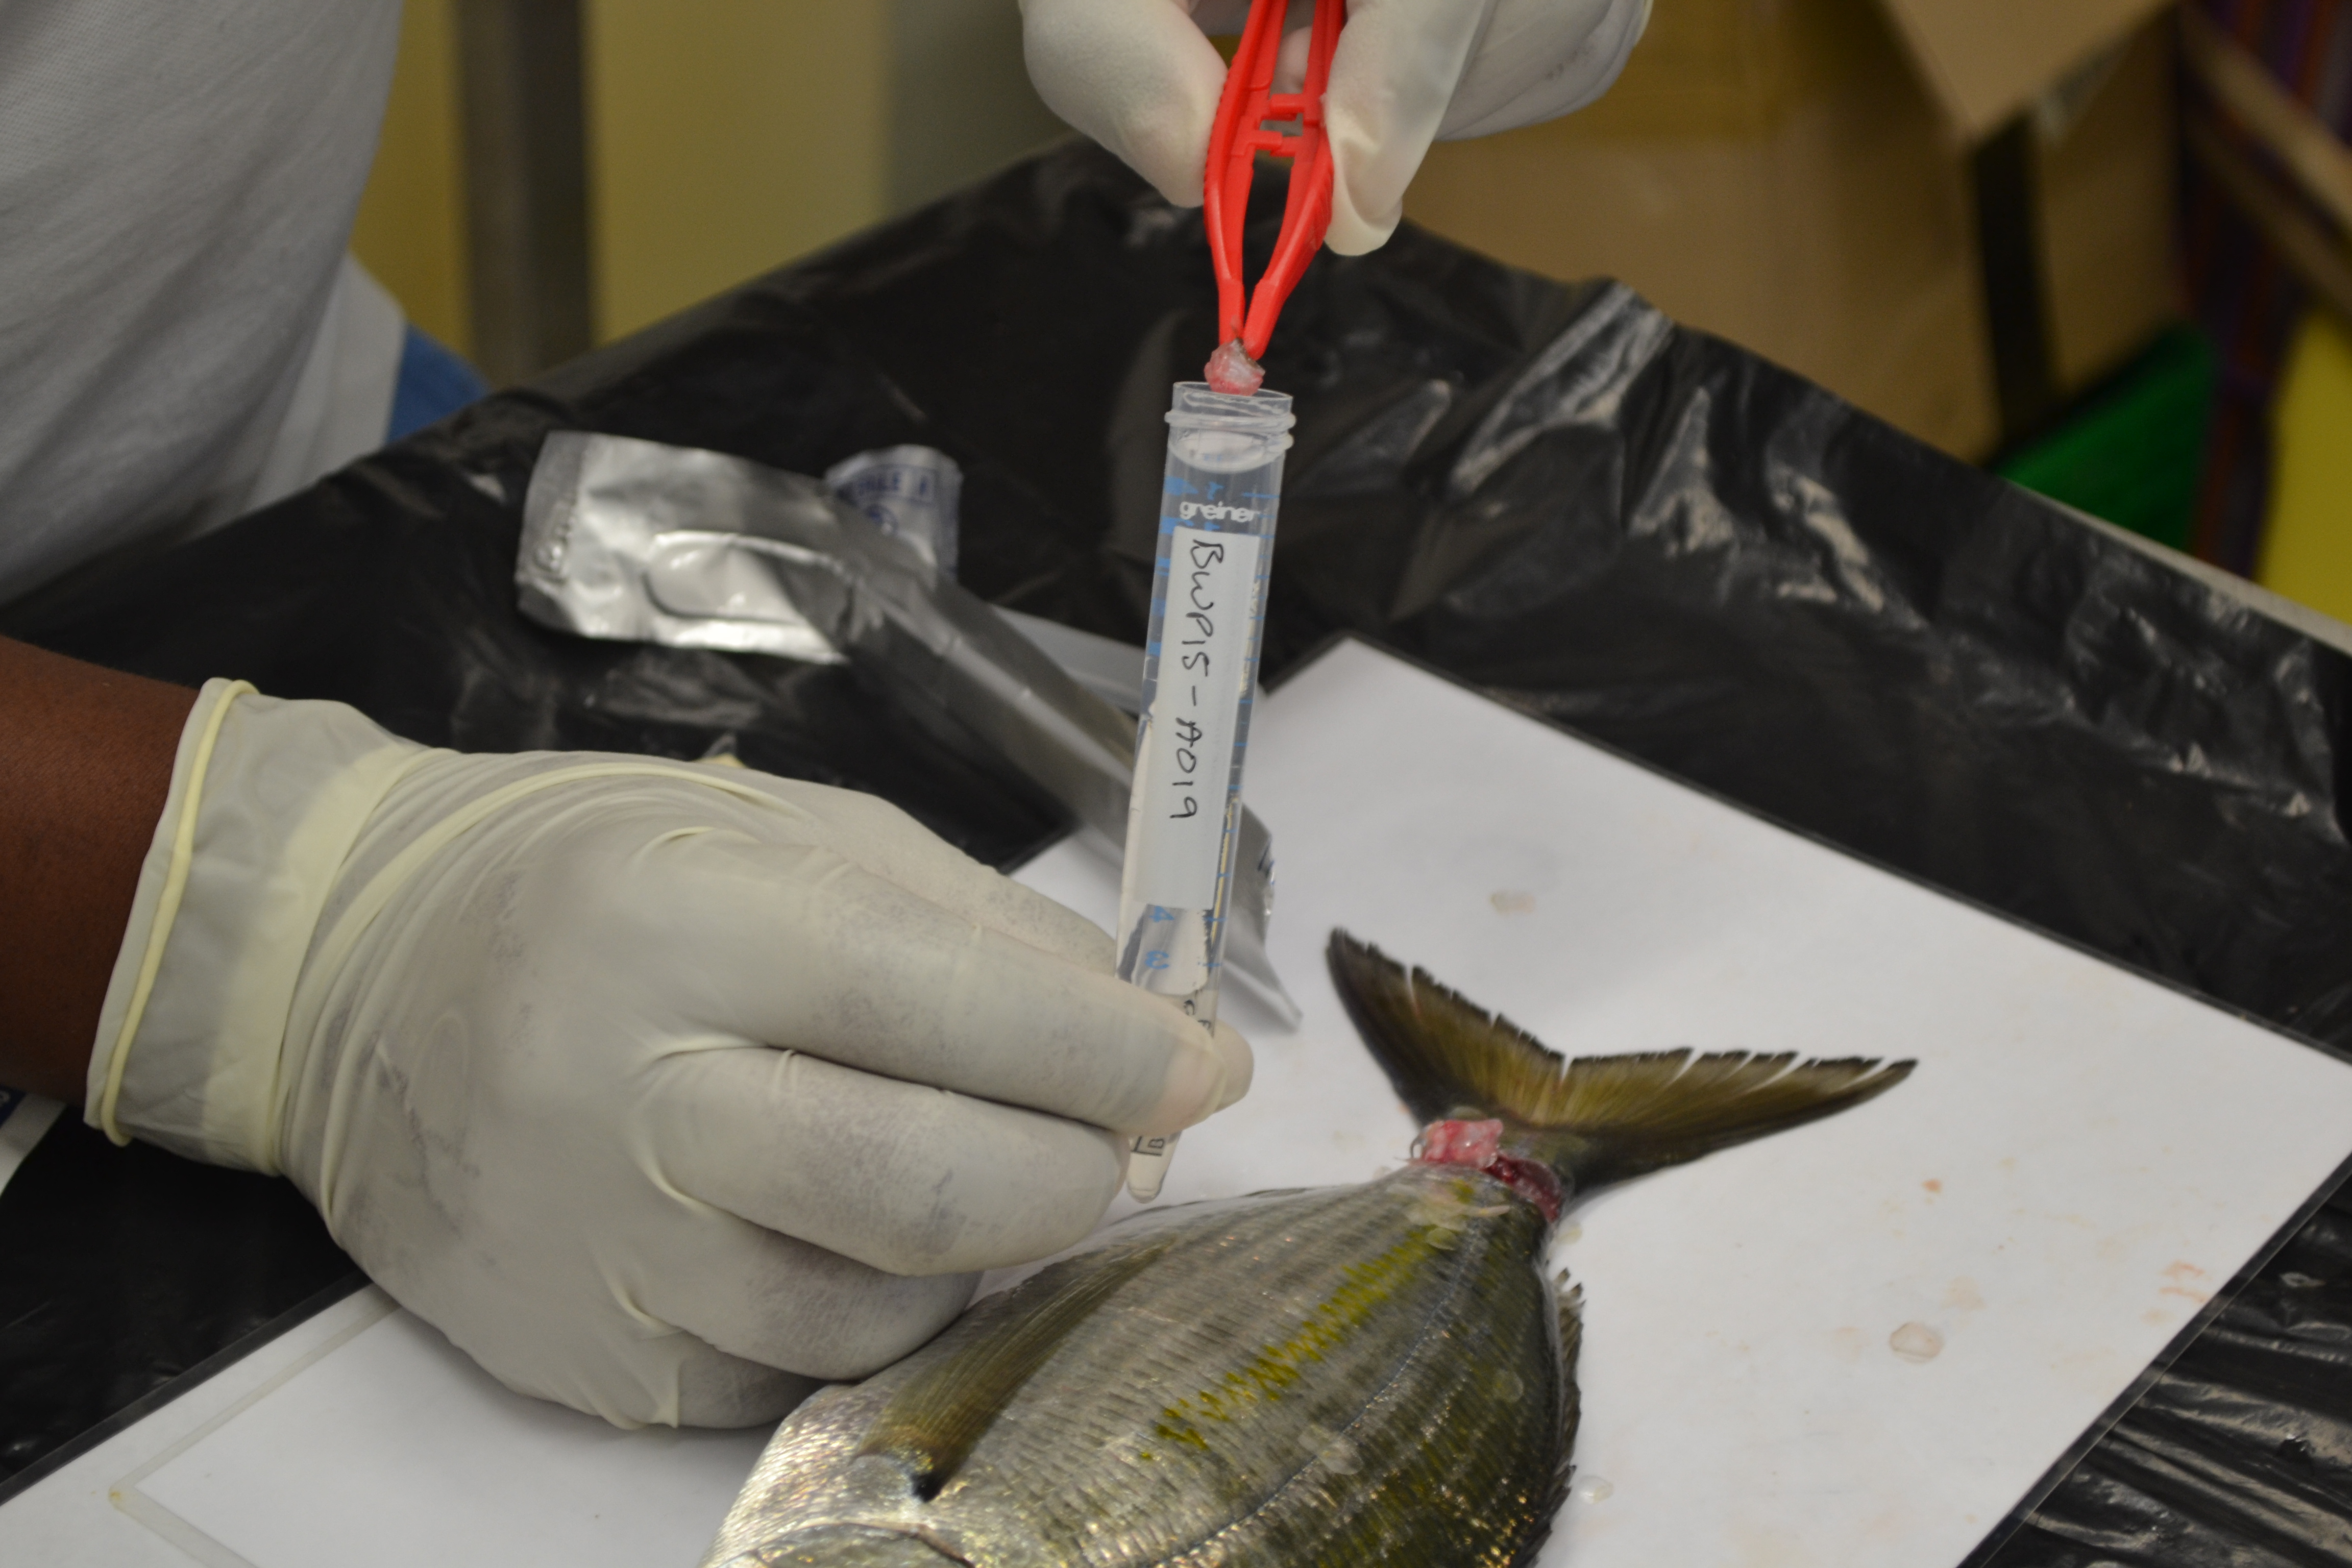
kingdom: Animalia
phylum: Chordata
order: Perciformes
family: Sparidae
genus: Rhabdosargus
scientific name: Rhabdosargus holubi
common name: Cape stumpnose
